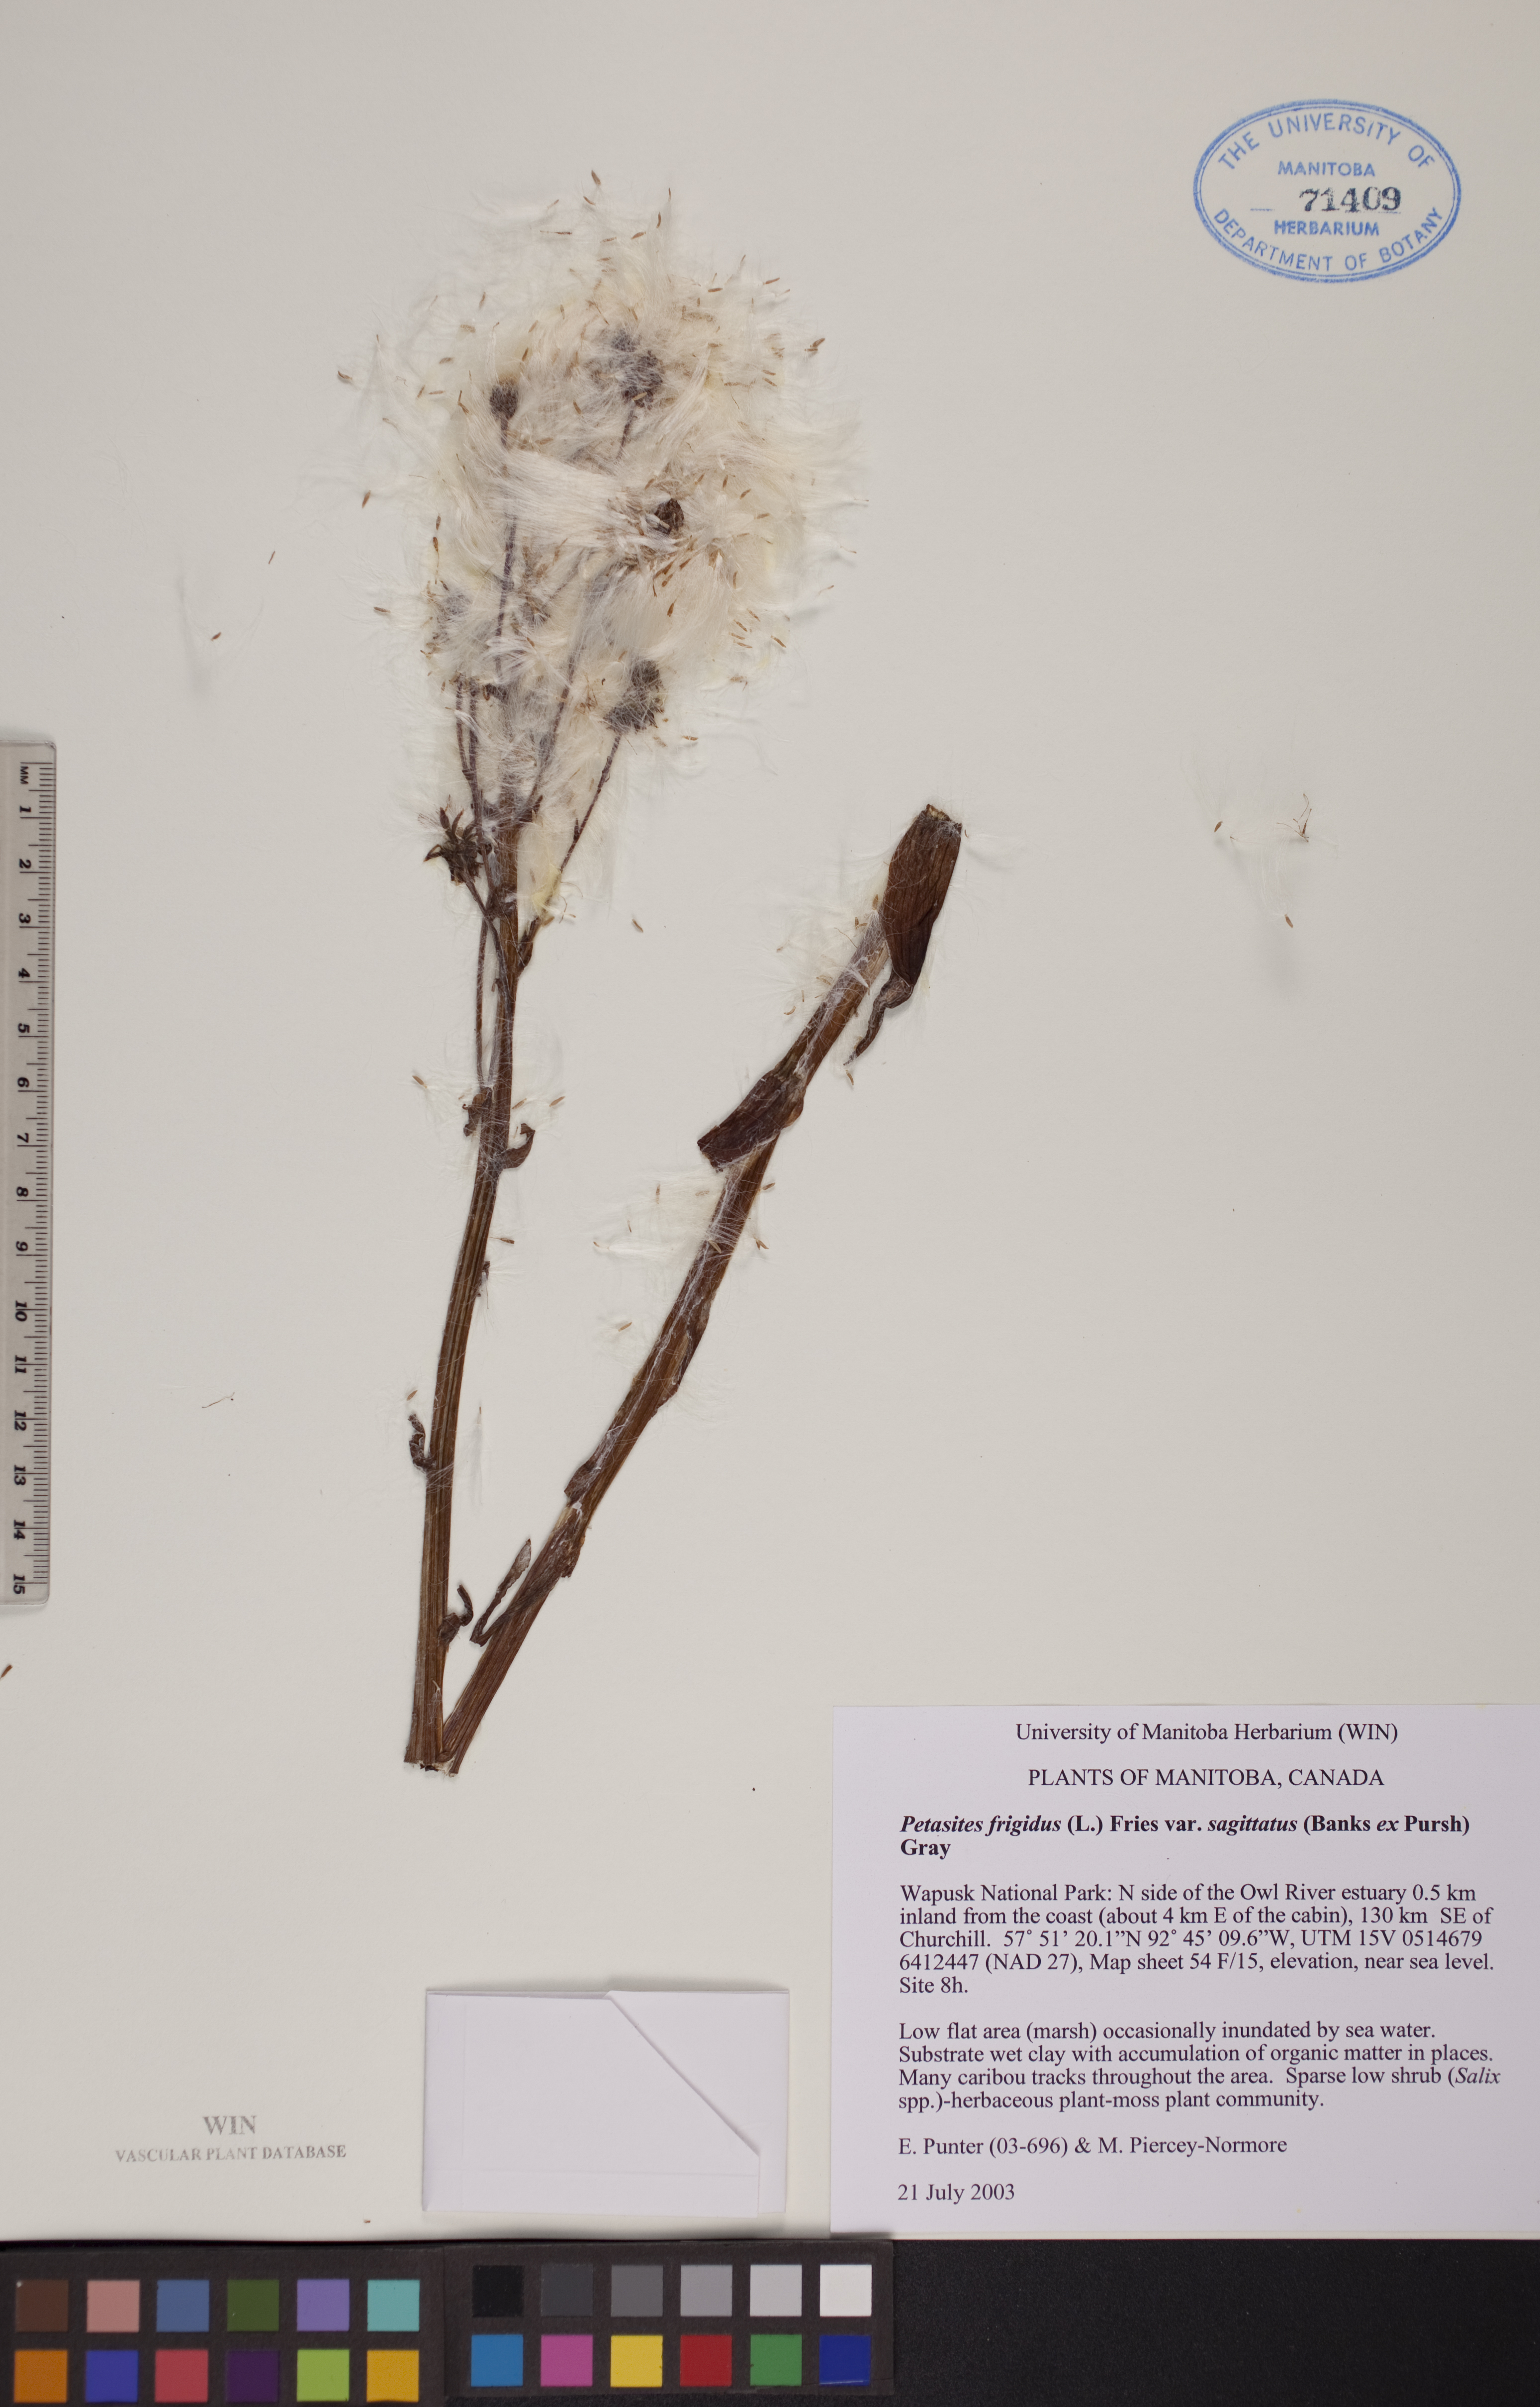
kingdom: Plantae
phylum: Tracheophyta
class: Magnoliopsida
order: Asterales
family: Asteraceae
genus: Petasites
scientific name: Petasites frigidus
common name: Arctic butterbur
